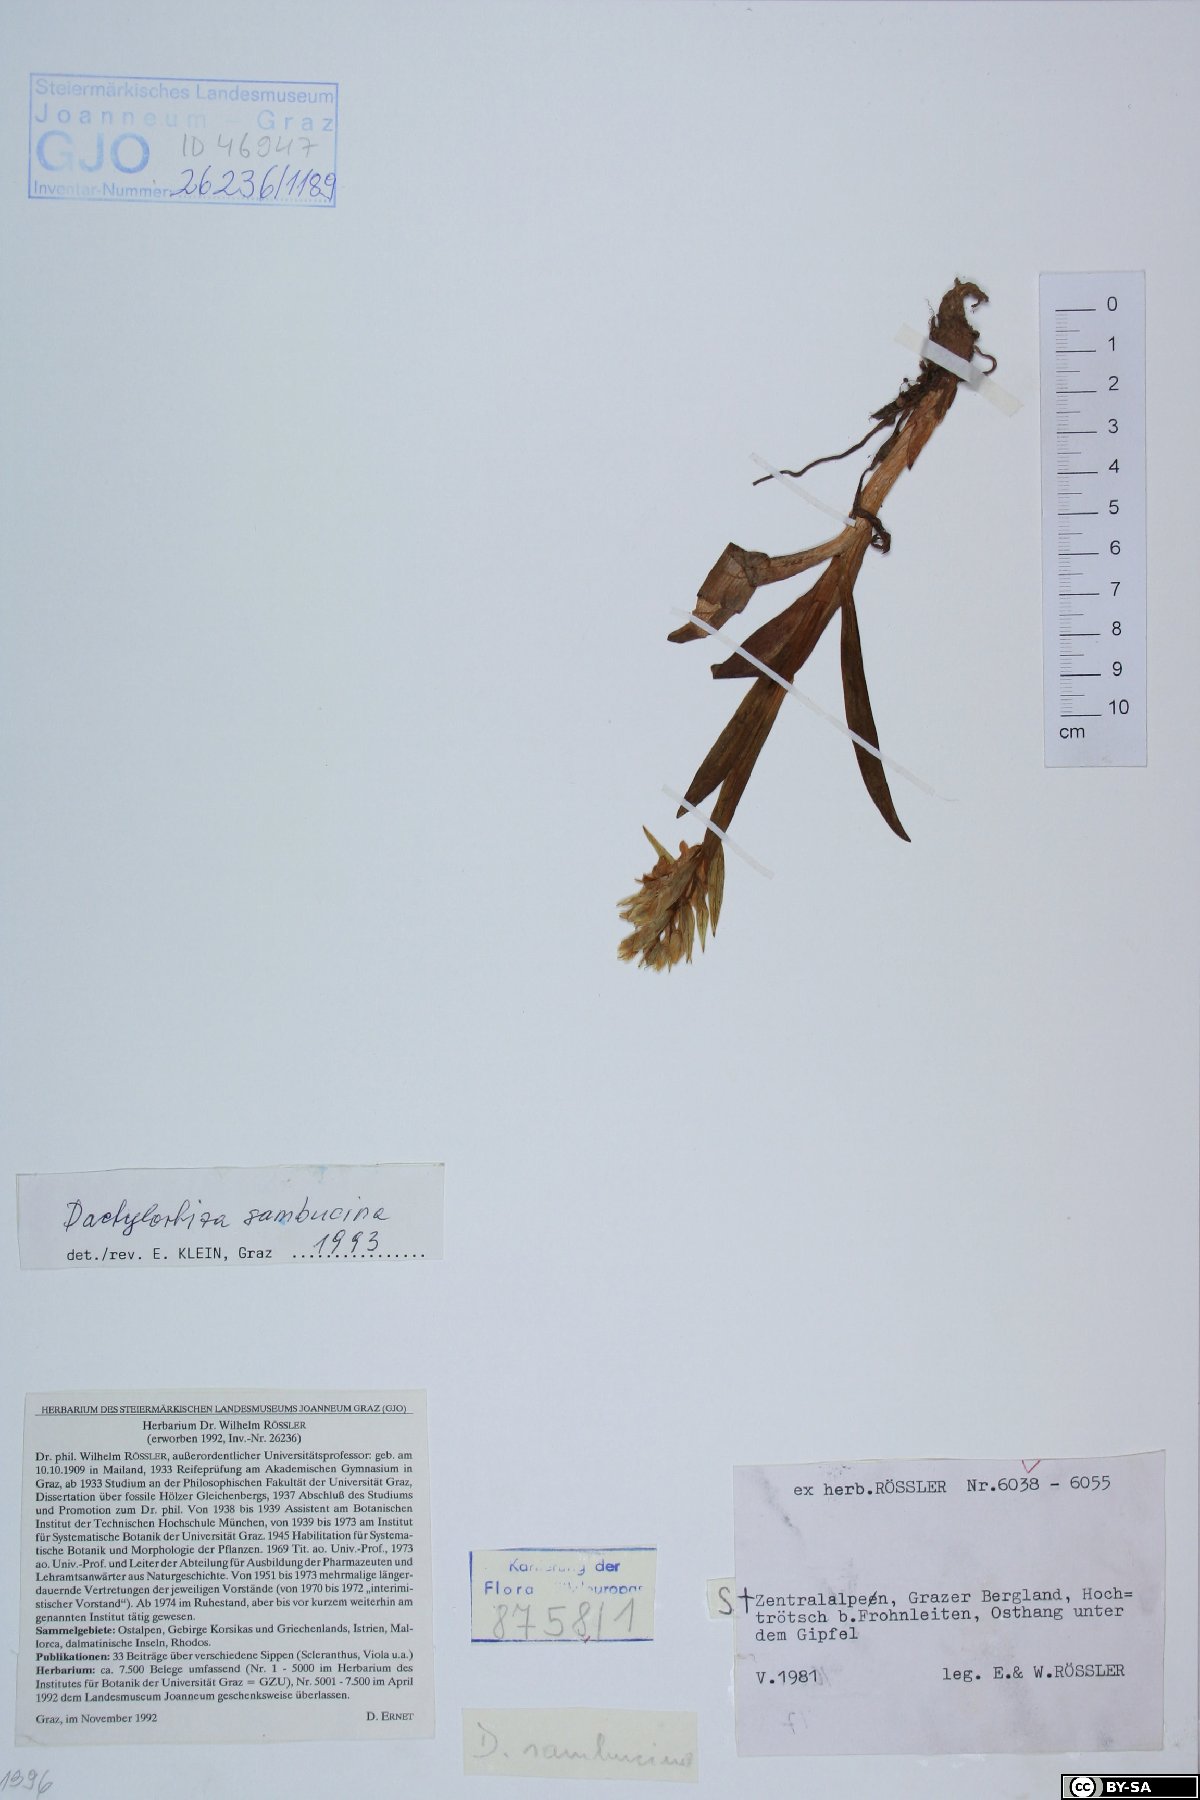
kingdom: Plantae
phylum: Tracheophyta
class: Liliopsida
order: Asparagales
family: Orchidaceae
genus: Dactylorhiza
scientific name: Dactylorhiza sambucina
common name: Elder-flowered orchid
